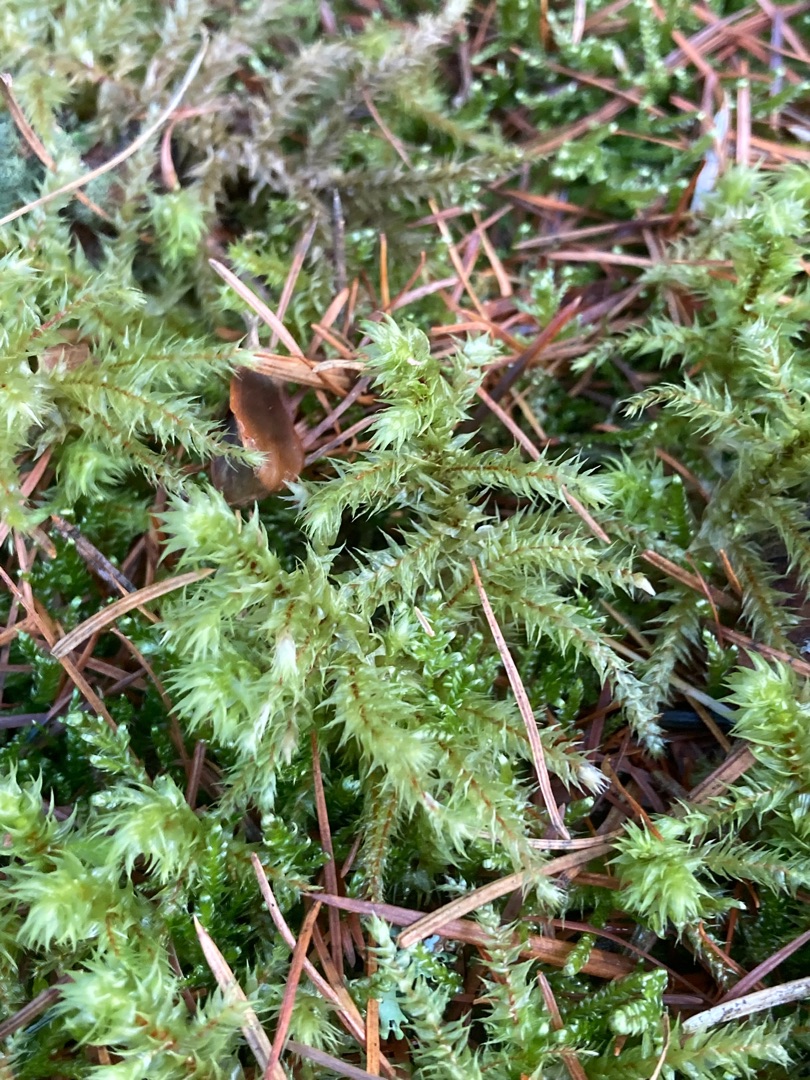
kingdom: Plantae
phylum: Bryophyta
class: Bryopsida
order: Hypnales
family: Hylocomiaceae
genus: Hylocomiadelphus
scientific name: Hylocomiadelphus triquetrus
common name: Stor kransemos
